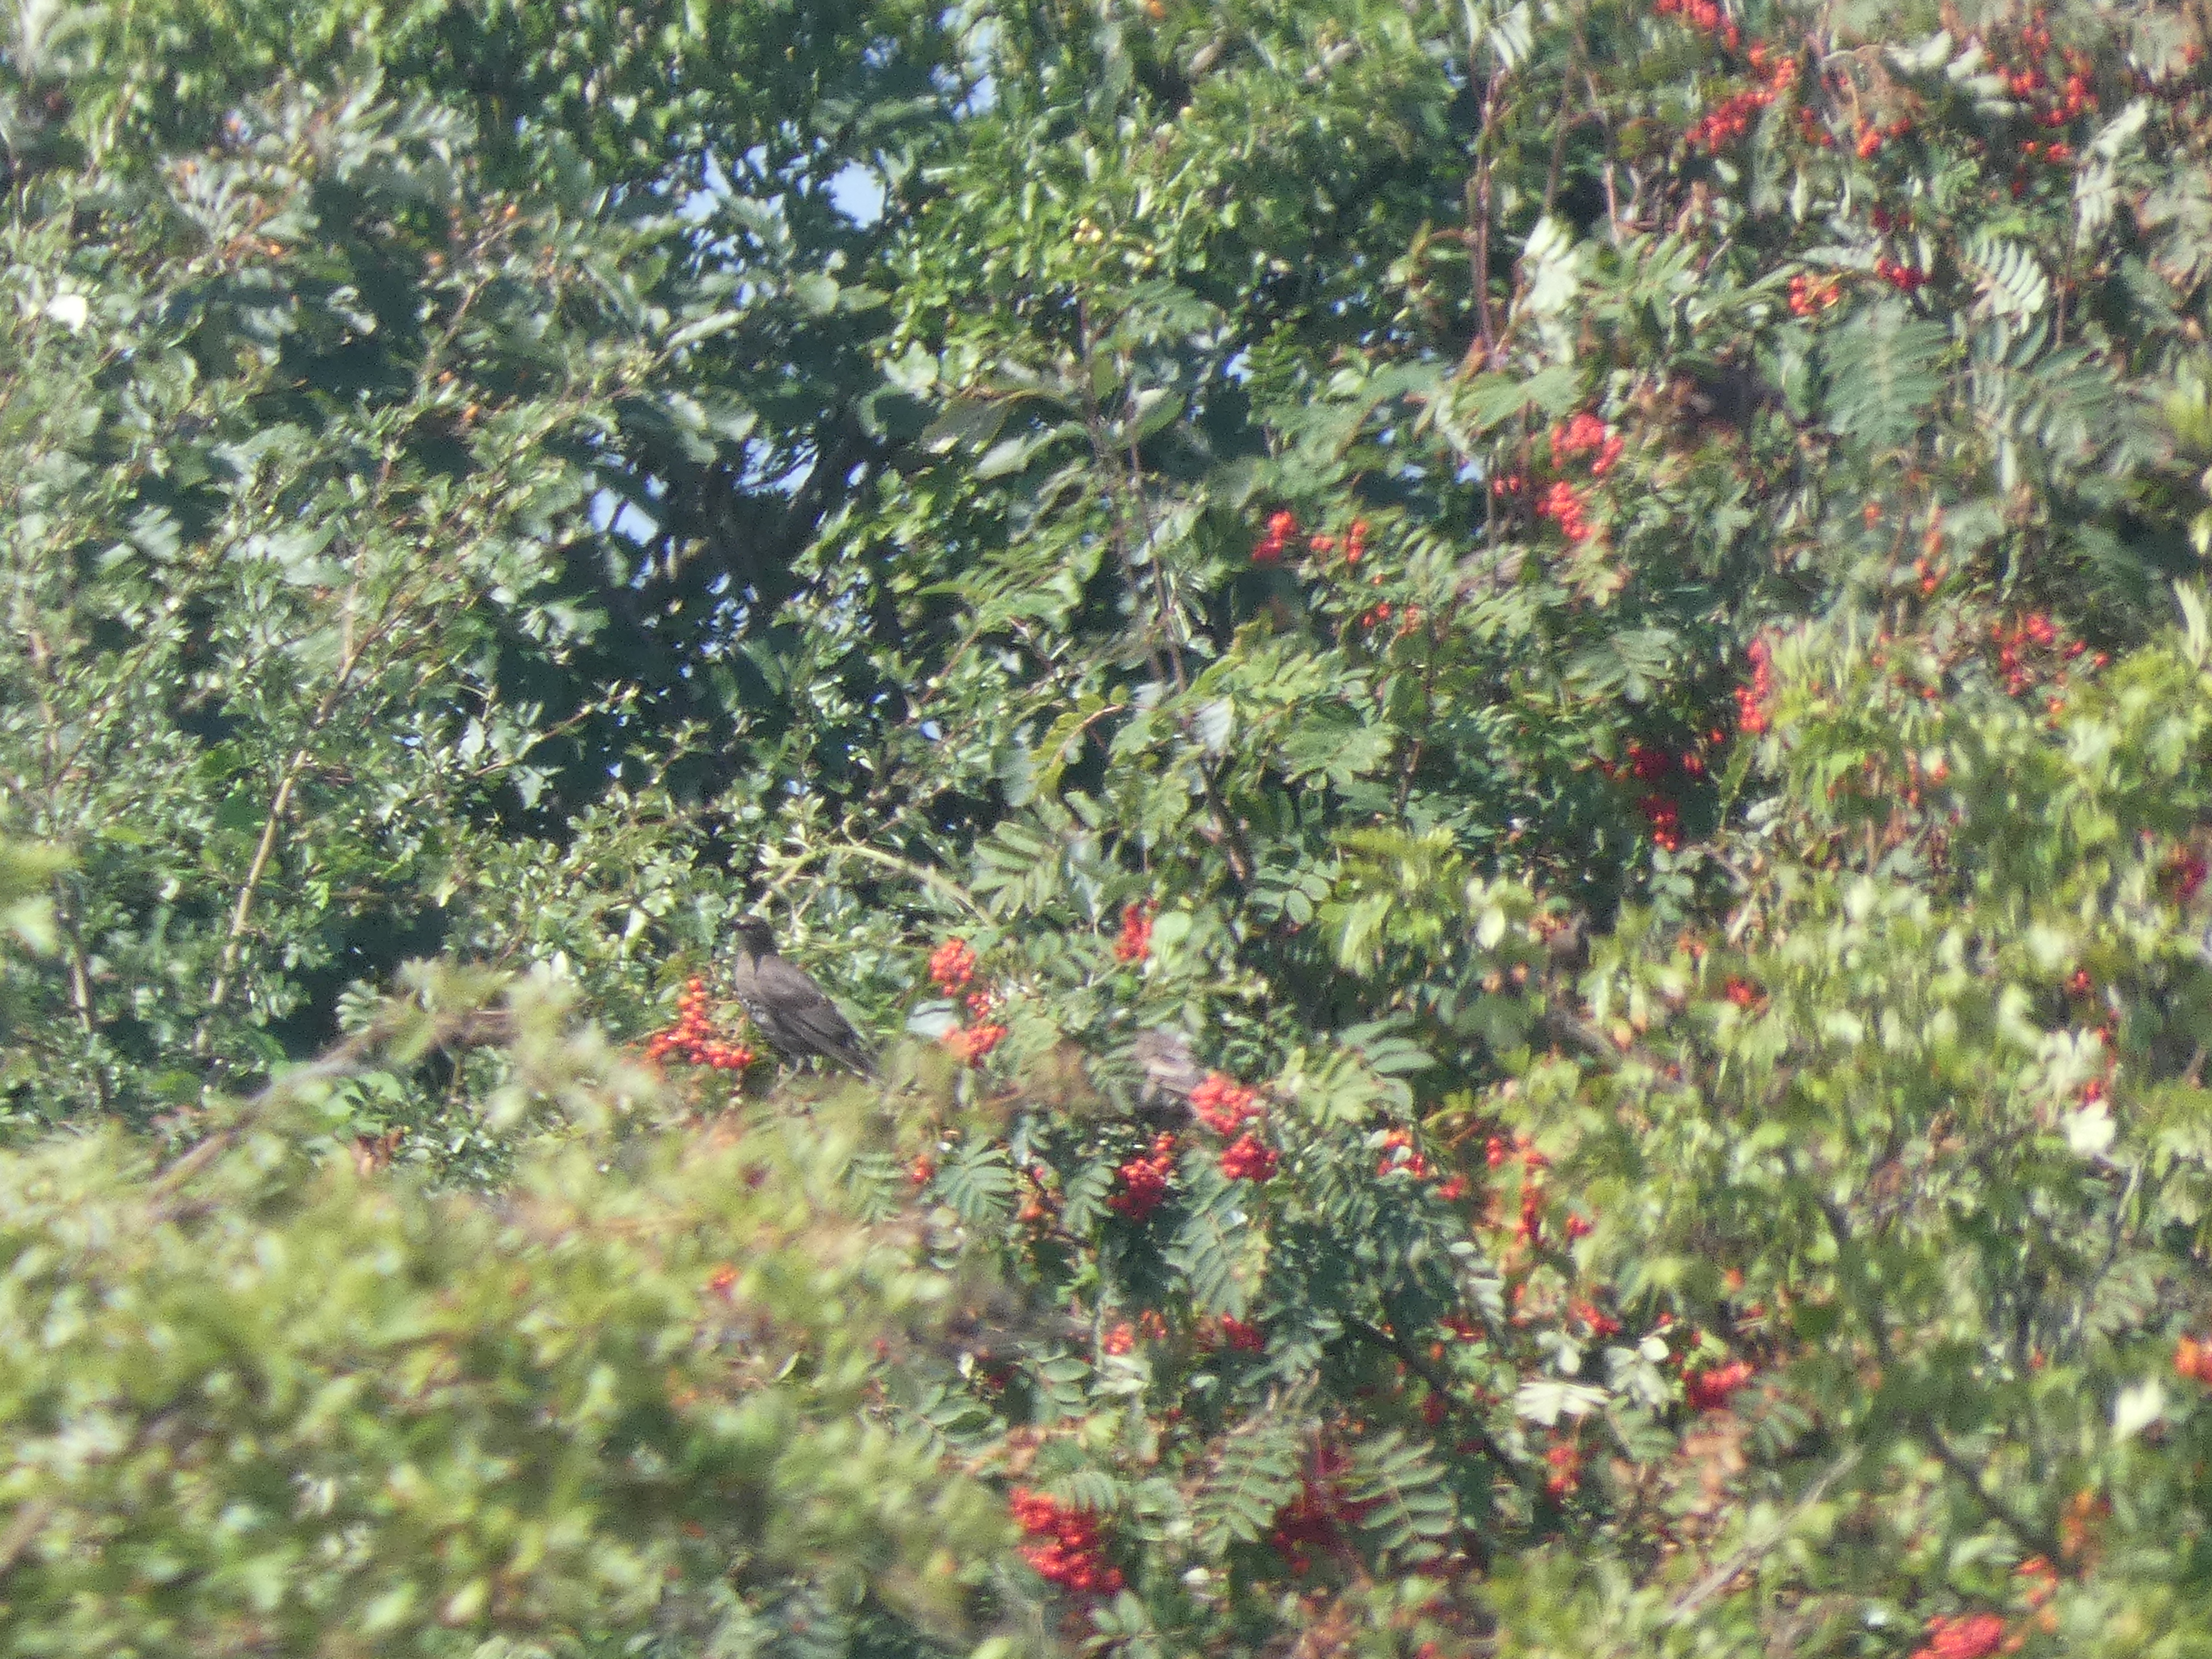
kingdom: Animalia
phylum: Chordata
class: Aves
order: Passeriformes
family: Sturnidae
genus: Sturnus
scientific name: Sturnus vulgaris
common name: Stær
